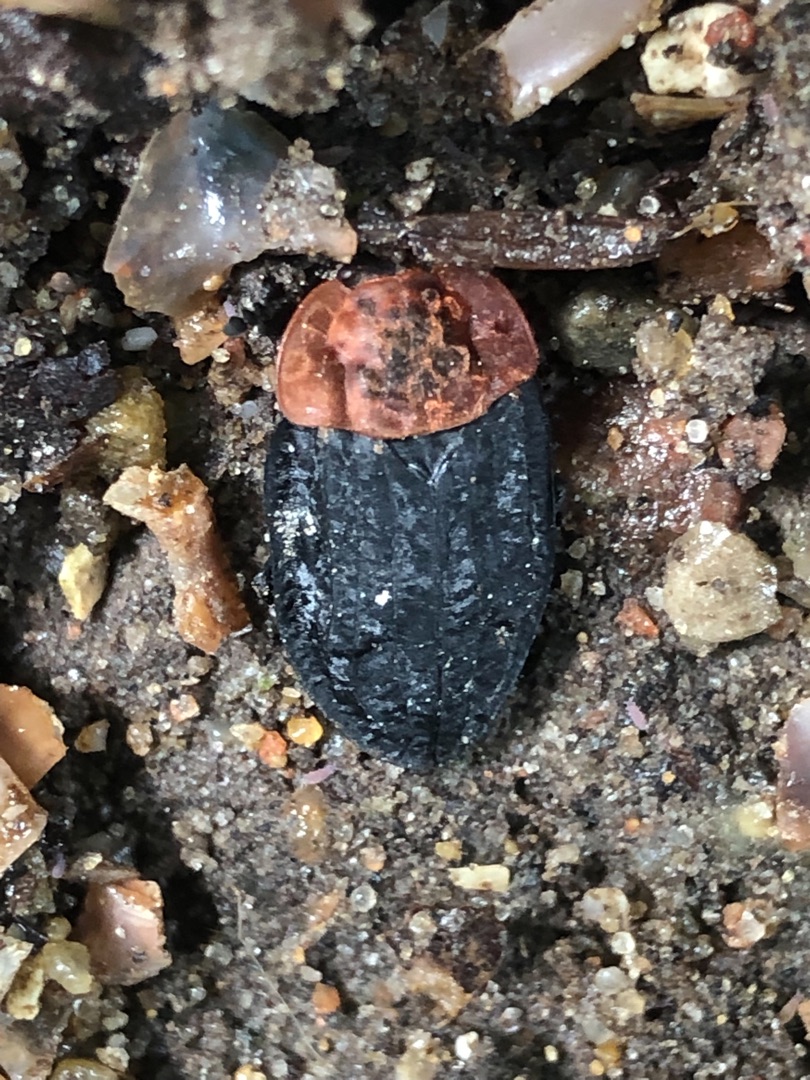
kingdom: Animalia
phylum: Arthropoda
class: Insecta
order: Coleoptera
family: Staphylinidae
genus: Oiceoptoma
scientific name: Oiceoptoma thoracicum
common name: Rødbrystet ådselbille
